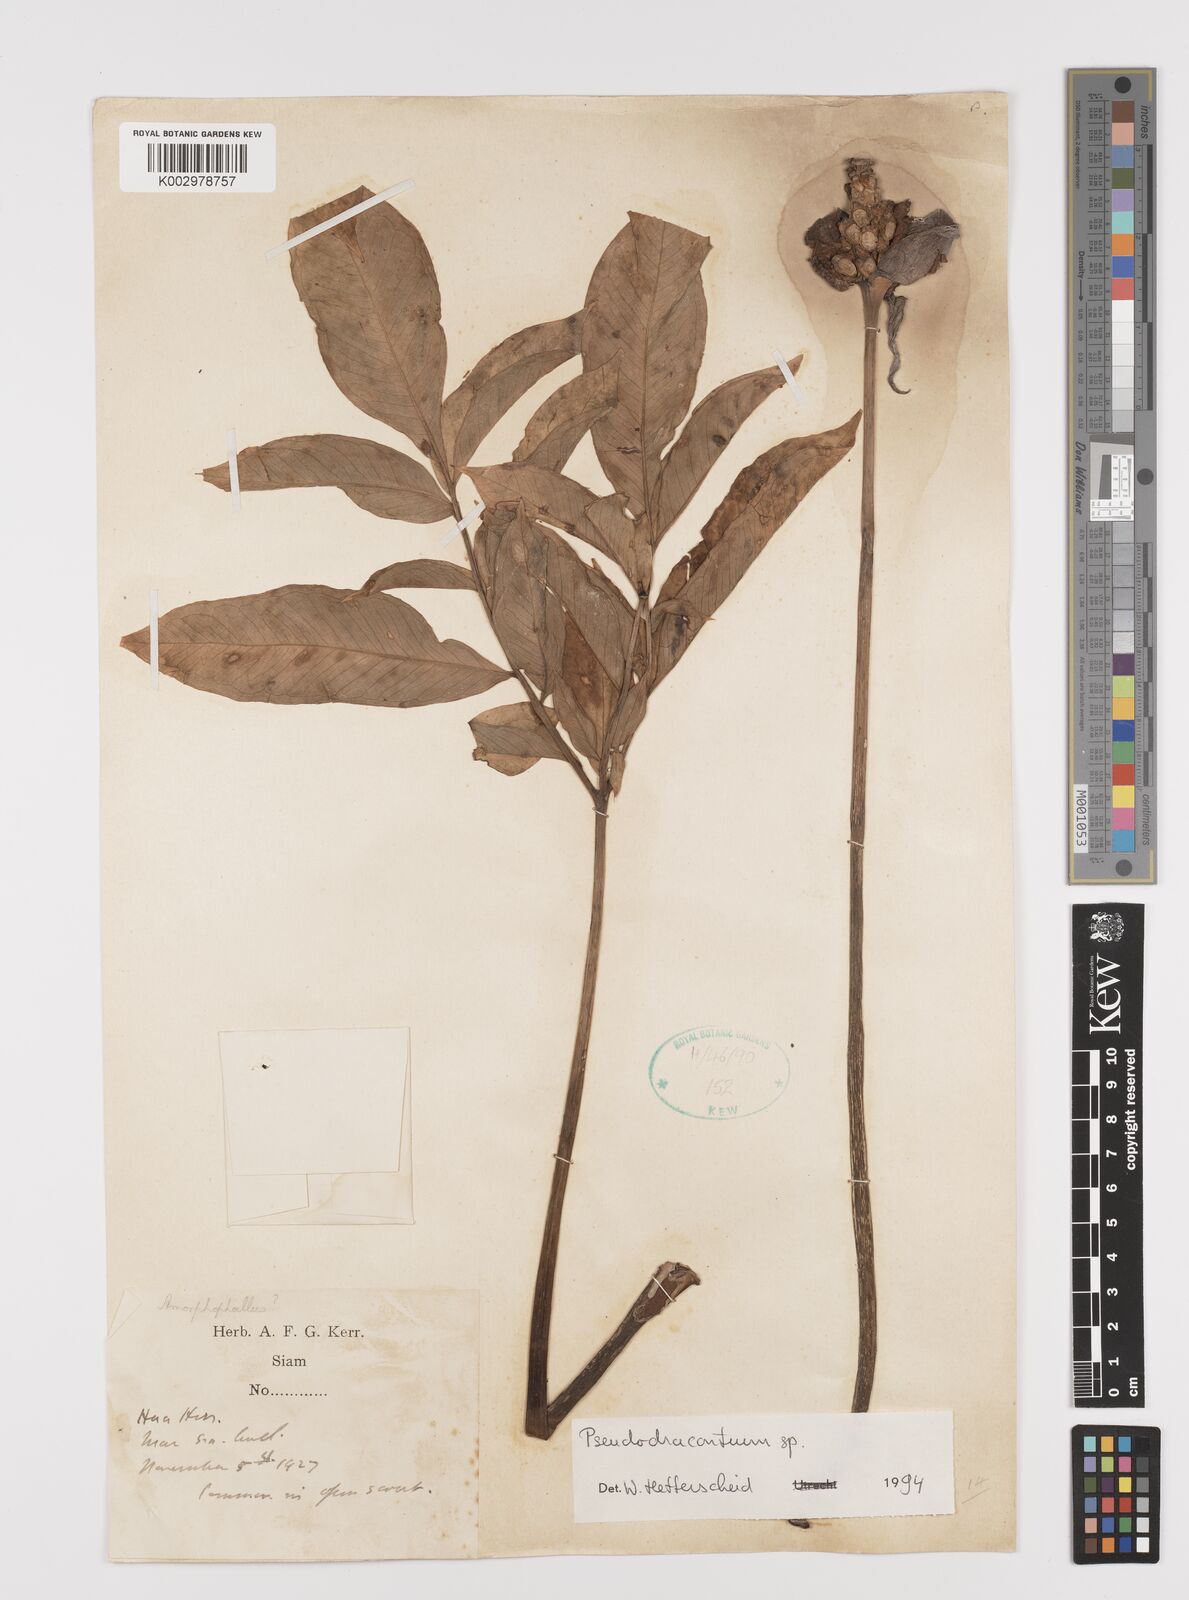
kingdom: Plantae
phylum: Tracheophyta
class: Liliopsida
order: Alismatales
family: Araceae
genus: Amorphophallus
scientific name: Amorphophallus
